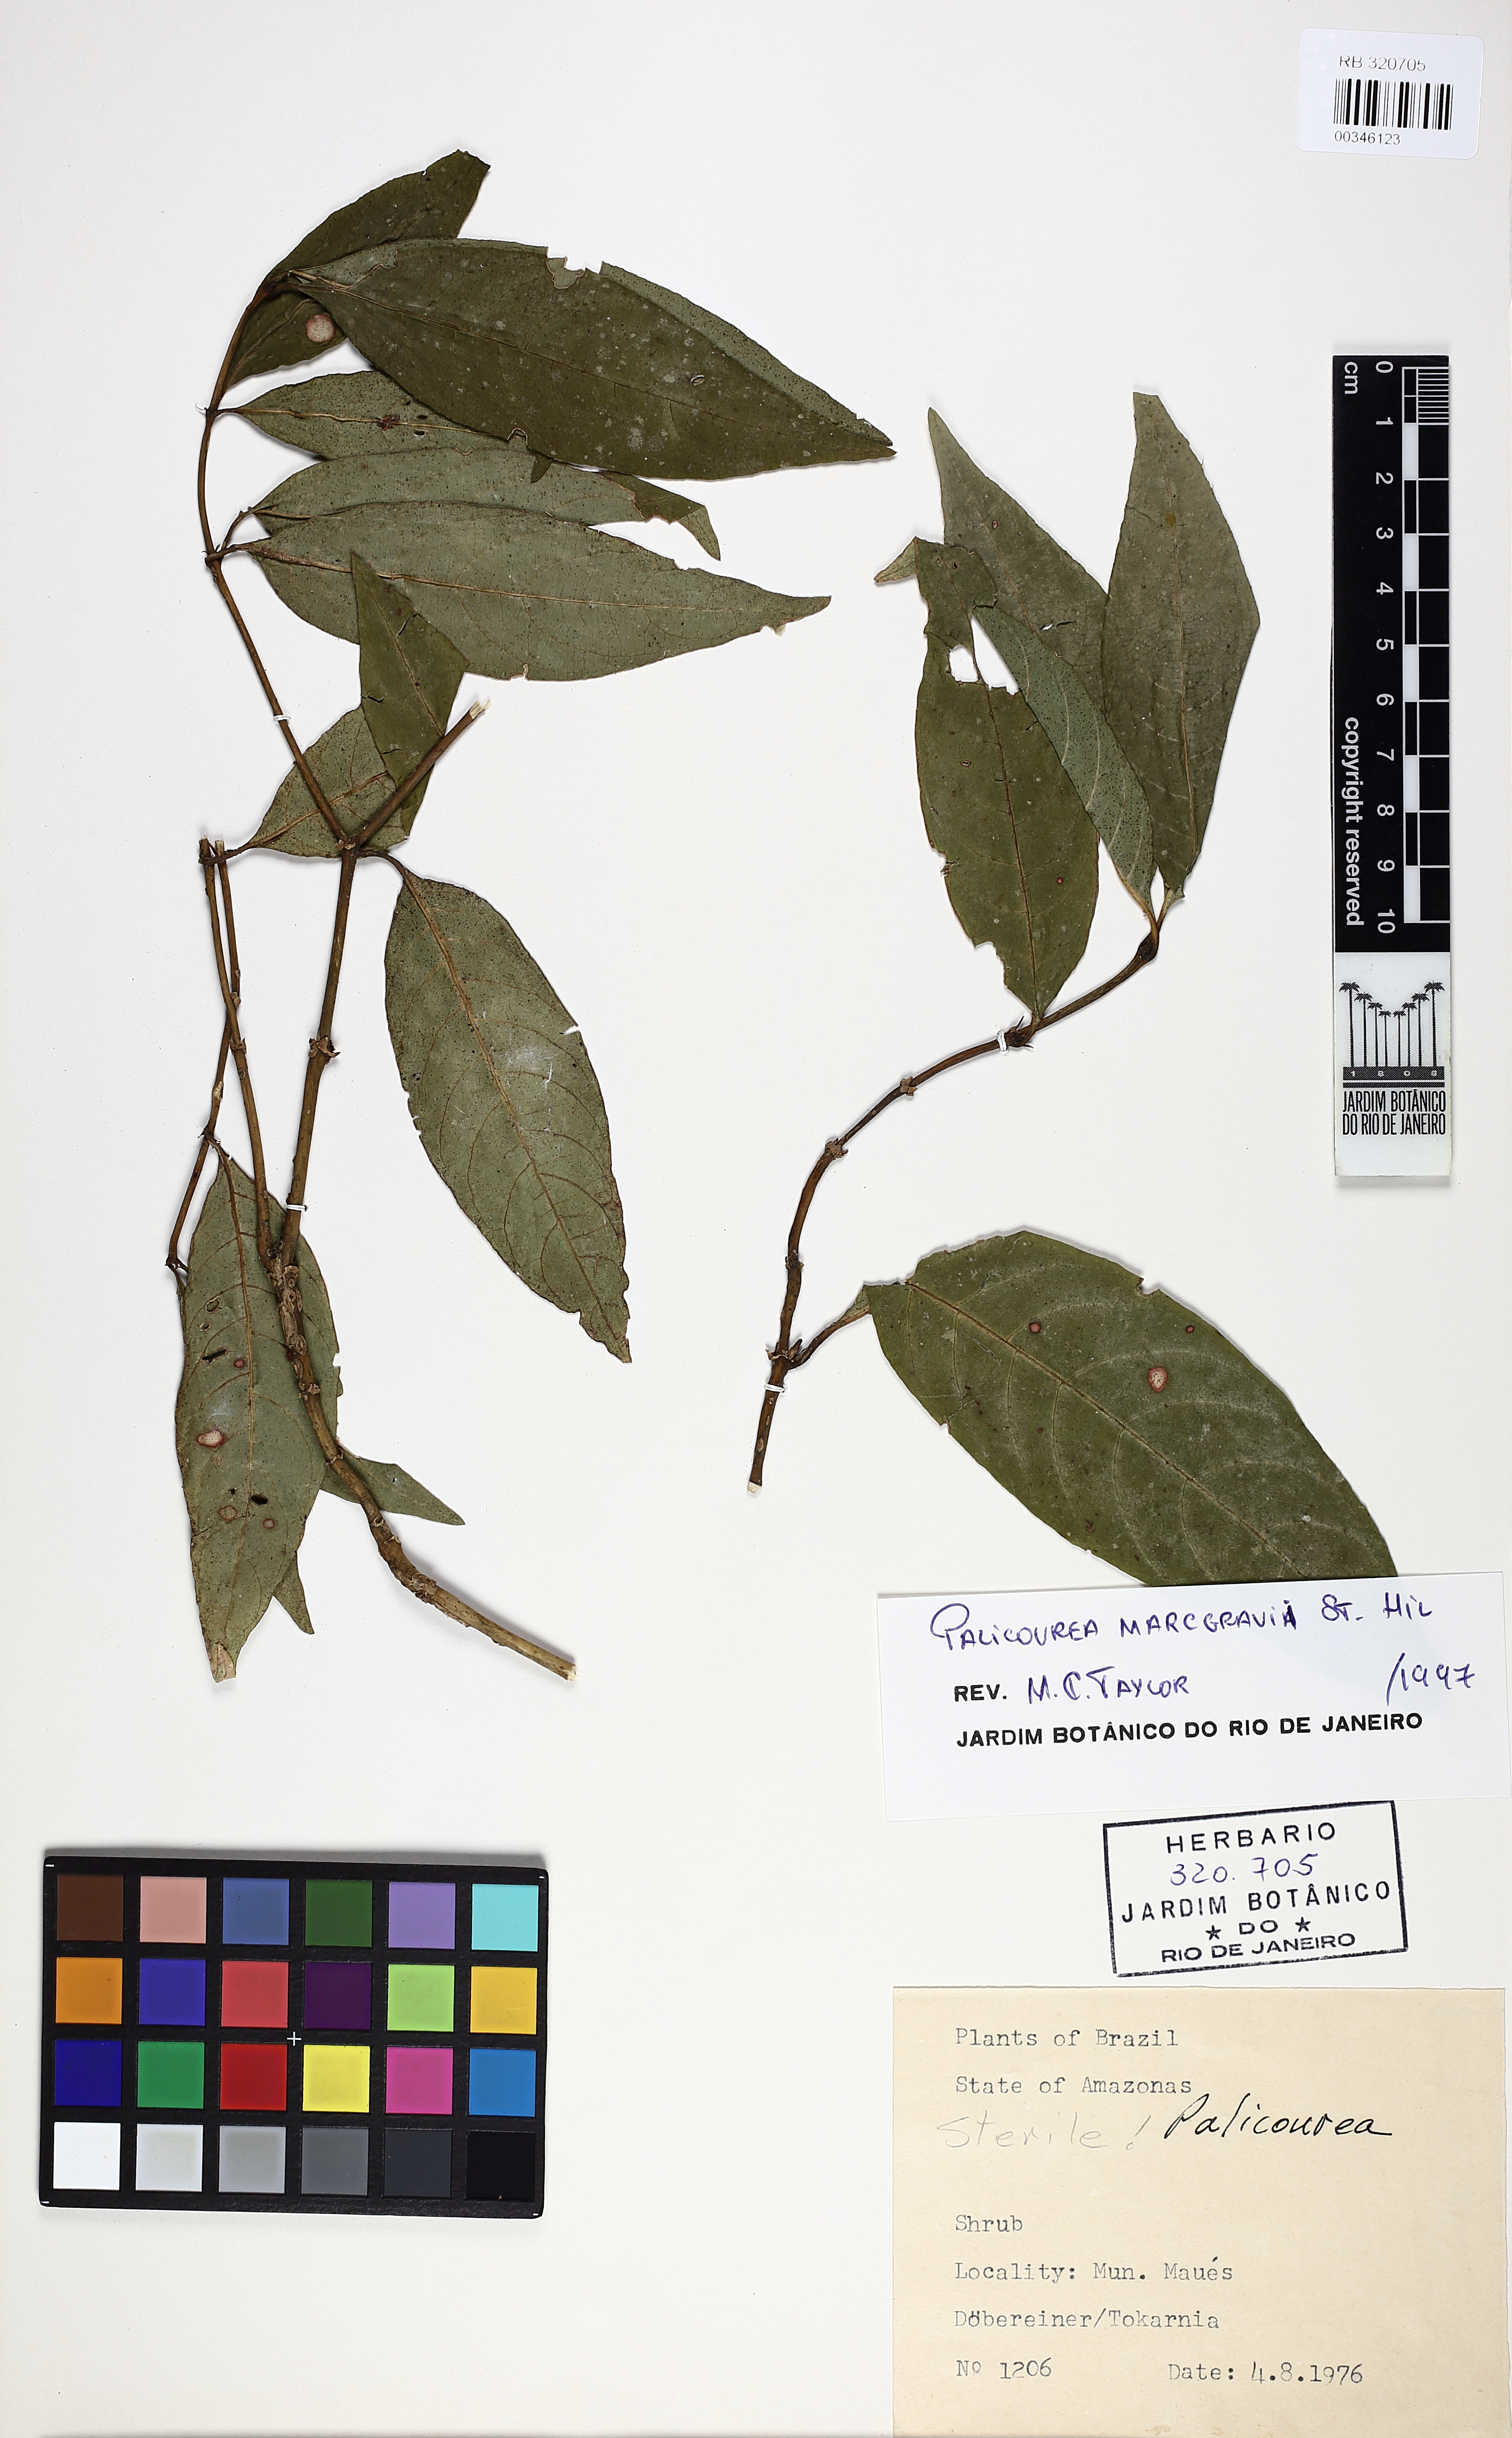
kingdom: Plantae
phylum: Tracheophyta
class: Magnoliopsida
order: Gentianales
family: Rubiaceae
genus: Palicourea
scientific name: Palicourea marcgravii
